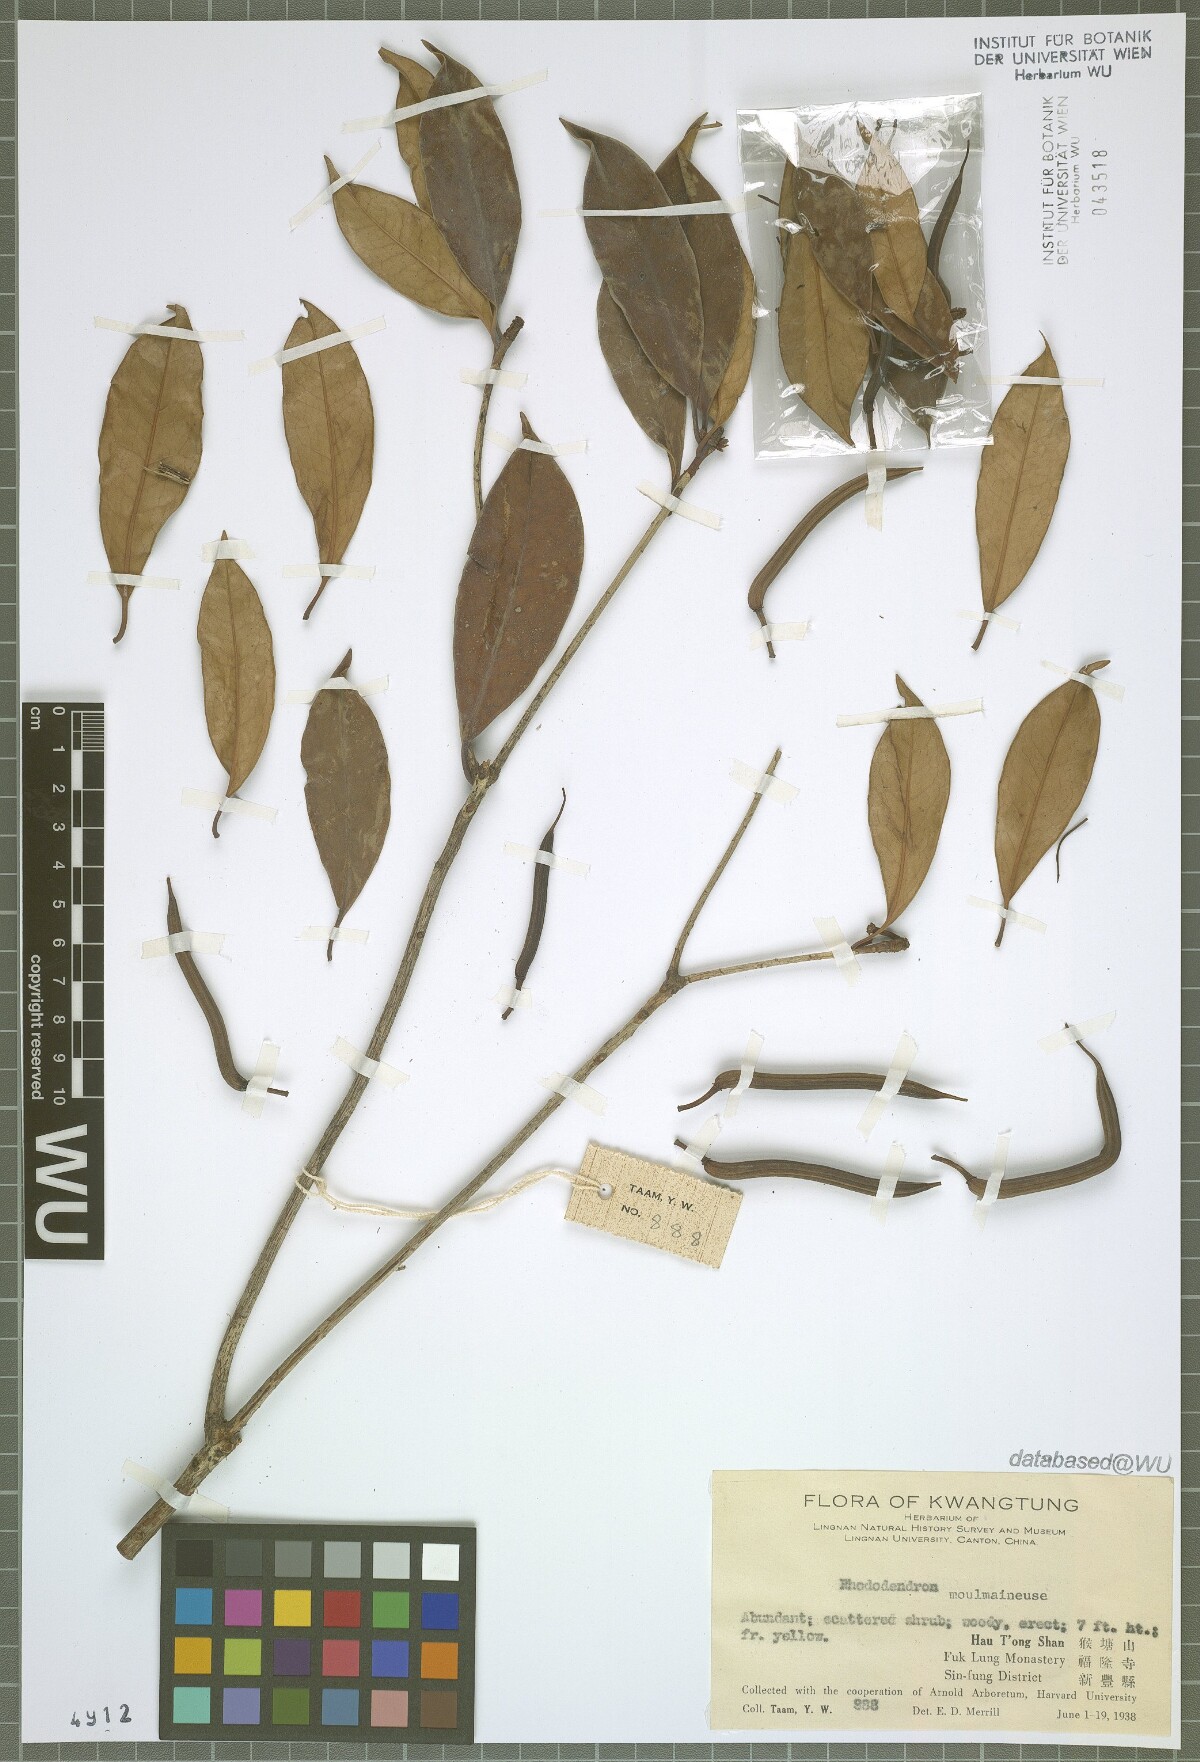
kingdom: Plantae
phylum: Tracheophyta
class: Magnoliopsida
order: Ericales
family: Ericaceae
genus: Rhododendron
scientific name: Rhododendron moulmainense
